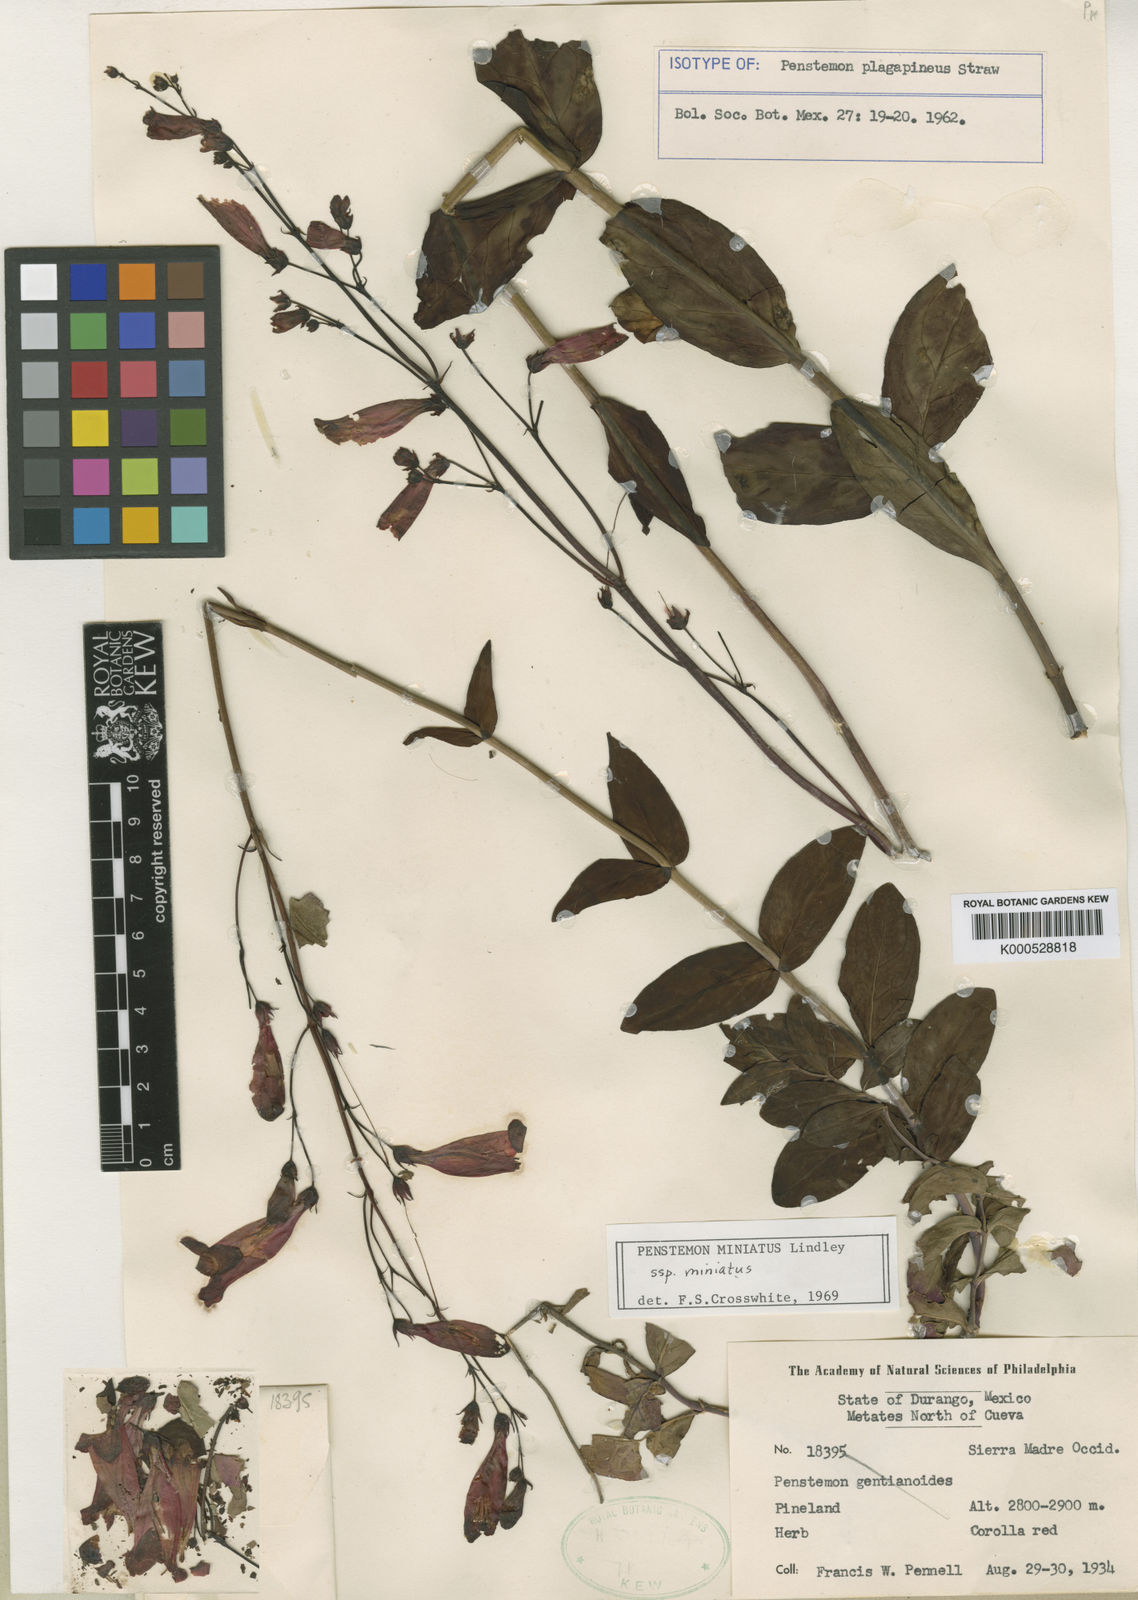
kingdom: Plantae
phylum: Tracheophyta
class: Magnoliopsida
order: Lamiales
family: Plantaginaceae
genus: Penstemon
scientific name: Penstemon plagapineus
